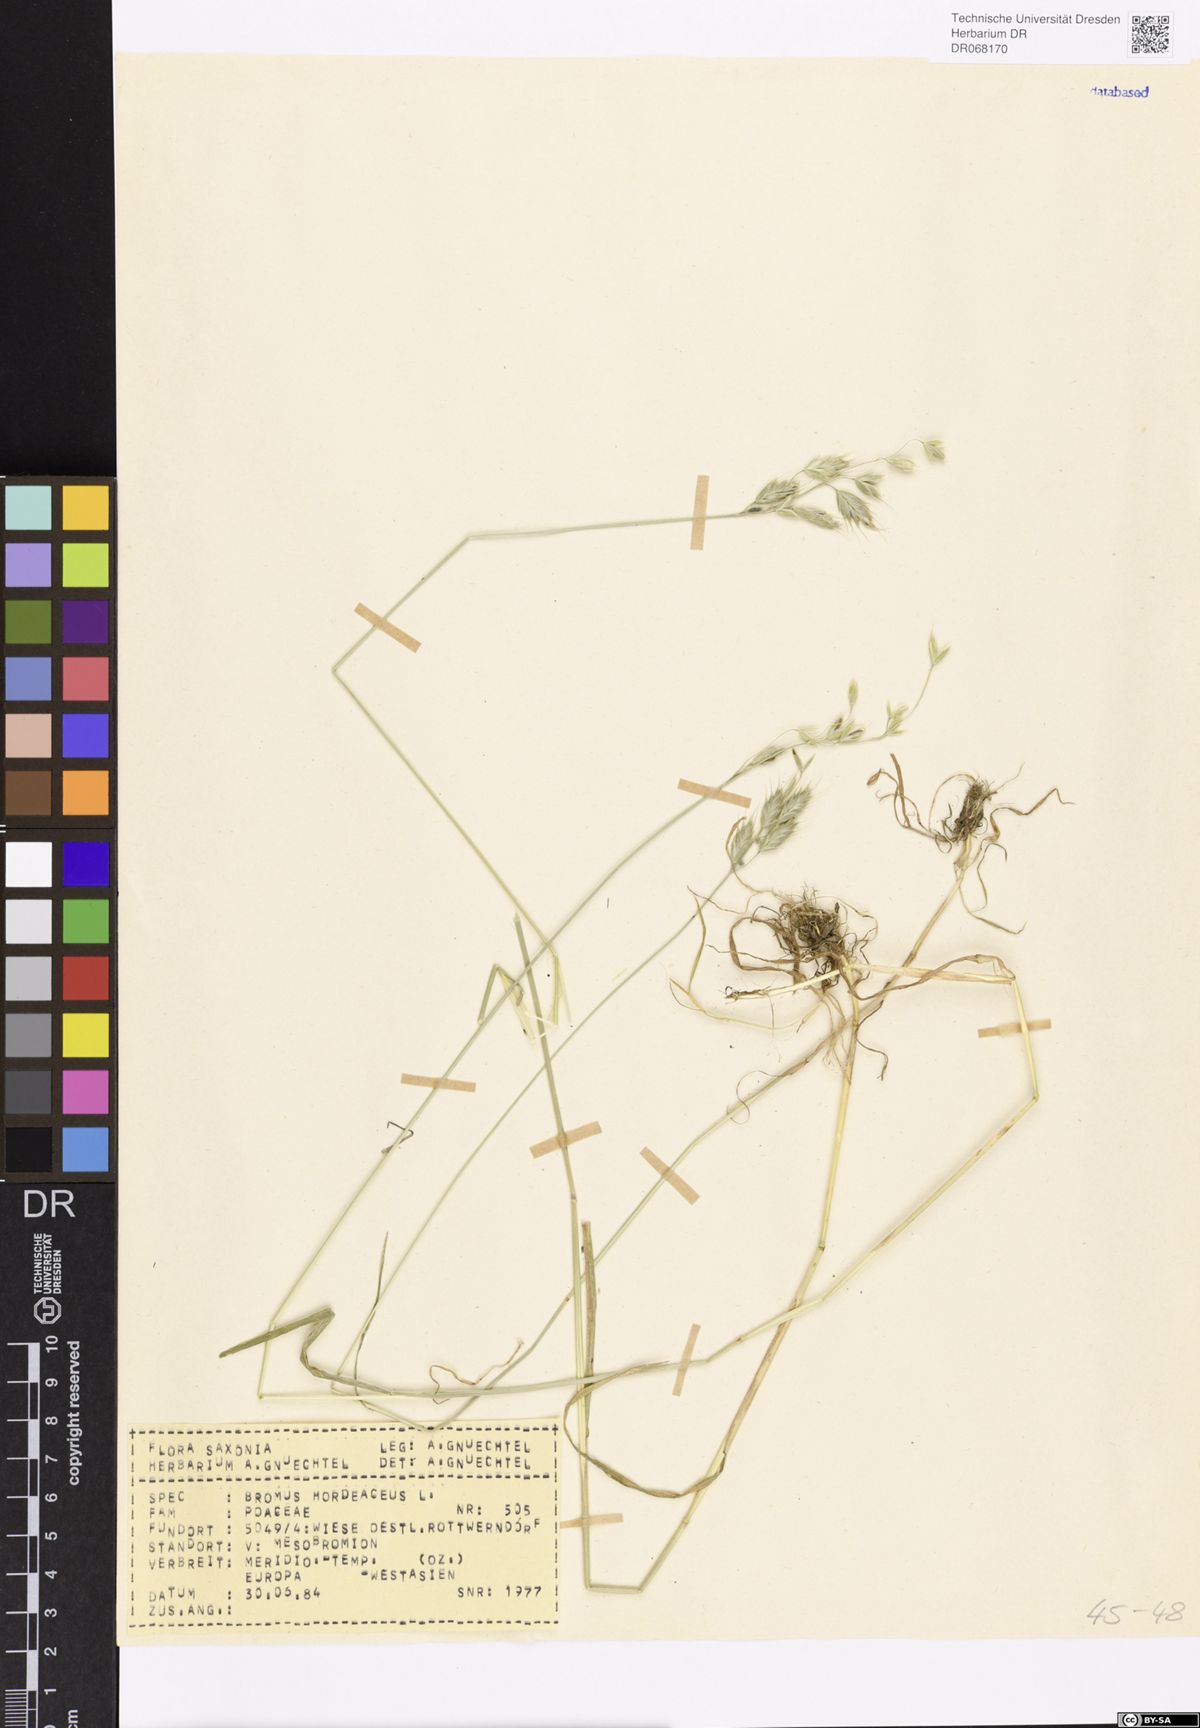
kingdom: Plantae
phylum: Tracheophyta
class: Liliopsida
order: Poales
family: Poaceae
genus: Bromus
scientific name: Bromus hordeaceus
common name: Soft brome
